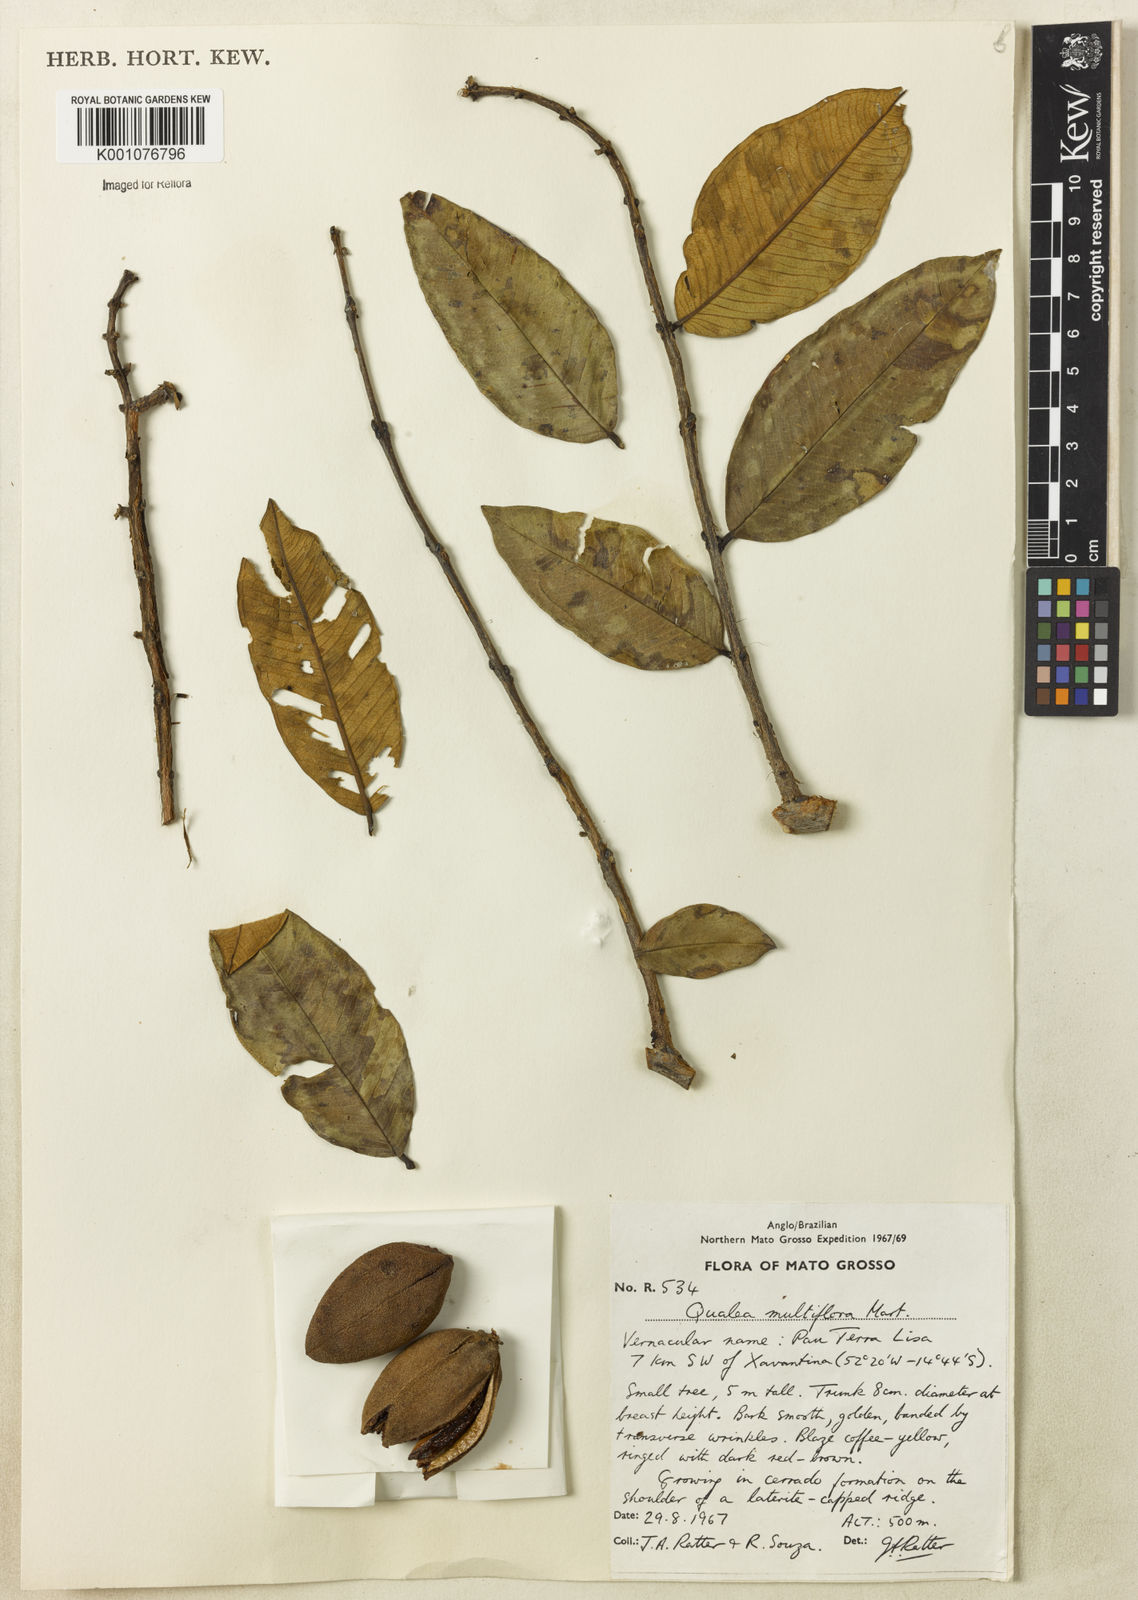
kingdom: Plantae
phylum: Tracheophyta
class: Magnoliopsida
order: Myrtales
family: Vochysiaceae
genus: Qualea
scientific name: Qualea multiflora
